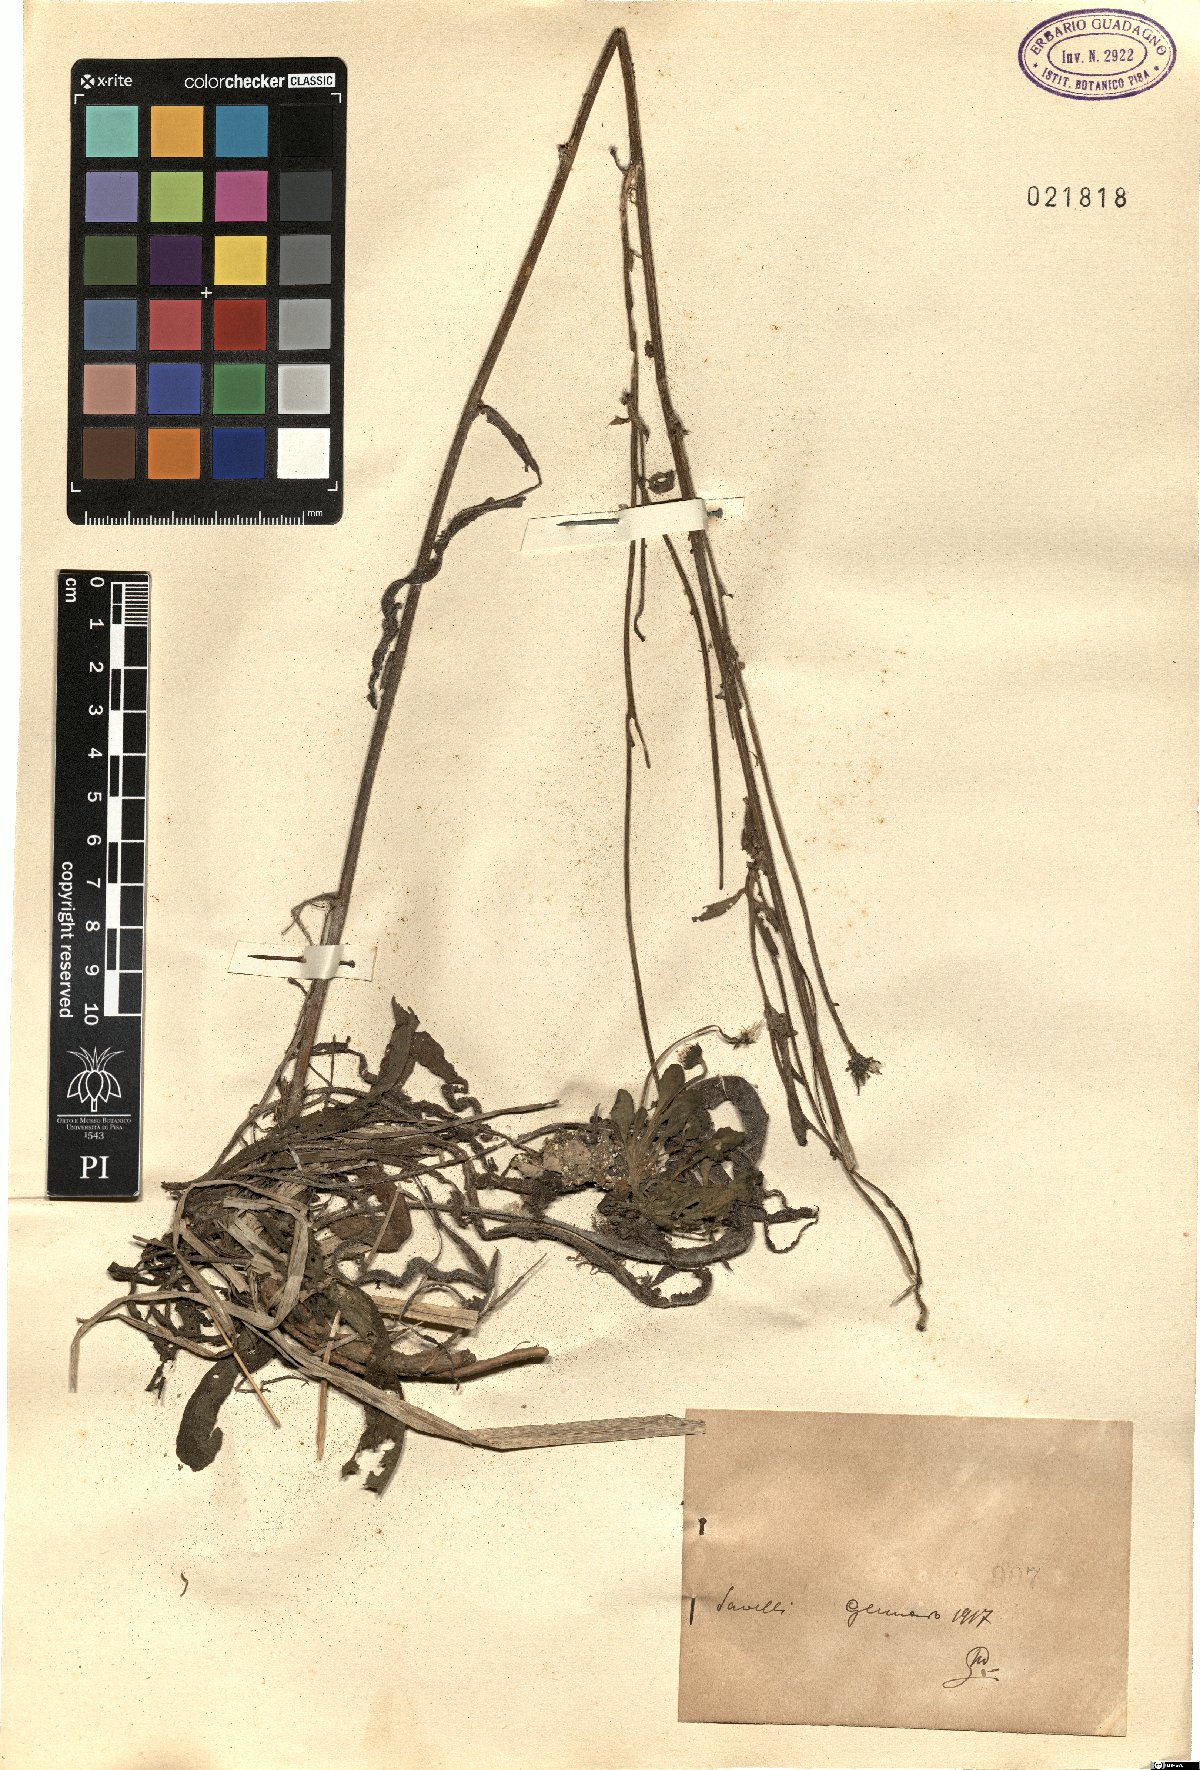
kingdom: Plantae
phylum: Tracheophyta
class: Magnoliopsida
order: Asterales
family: Asteraceae
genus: Picris
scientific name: Picris
